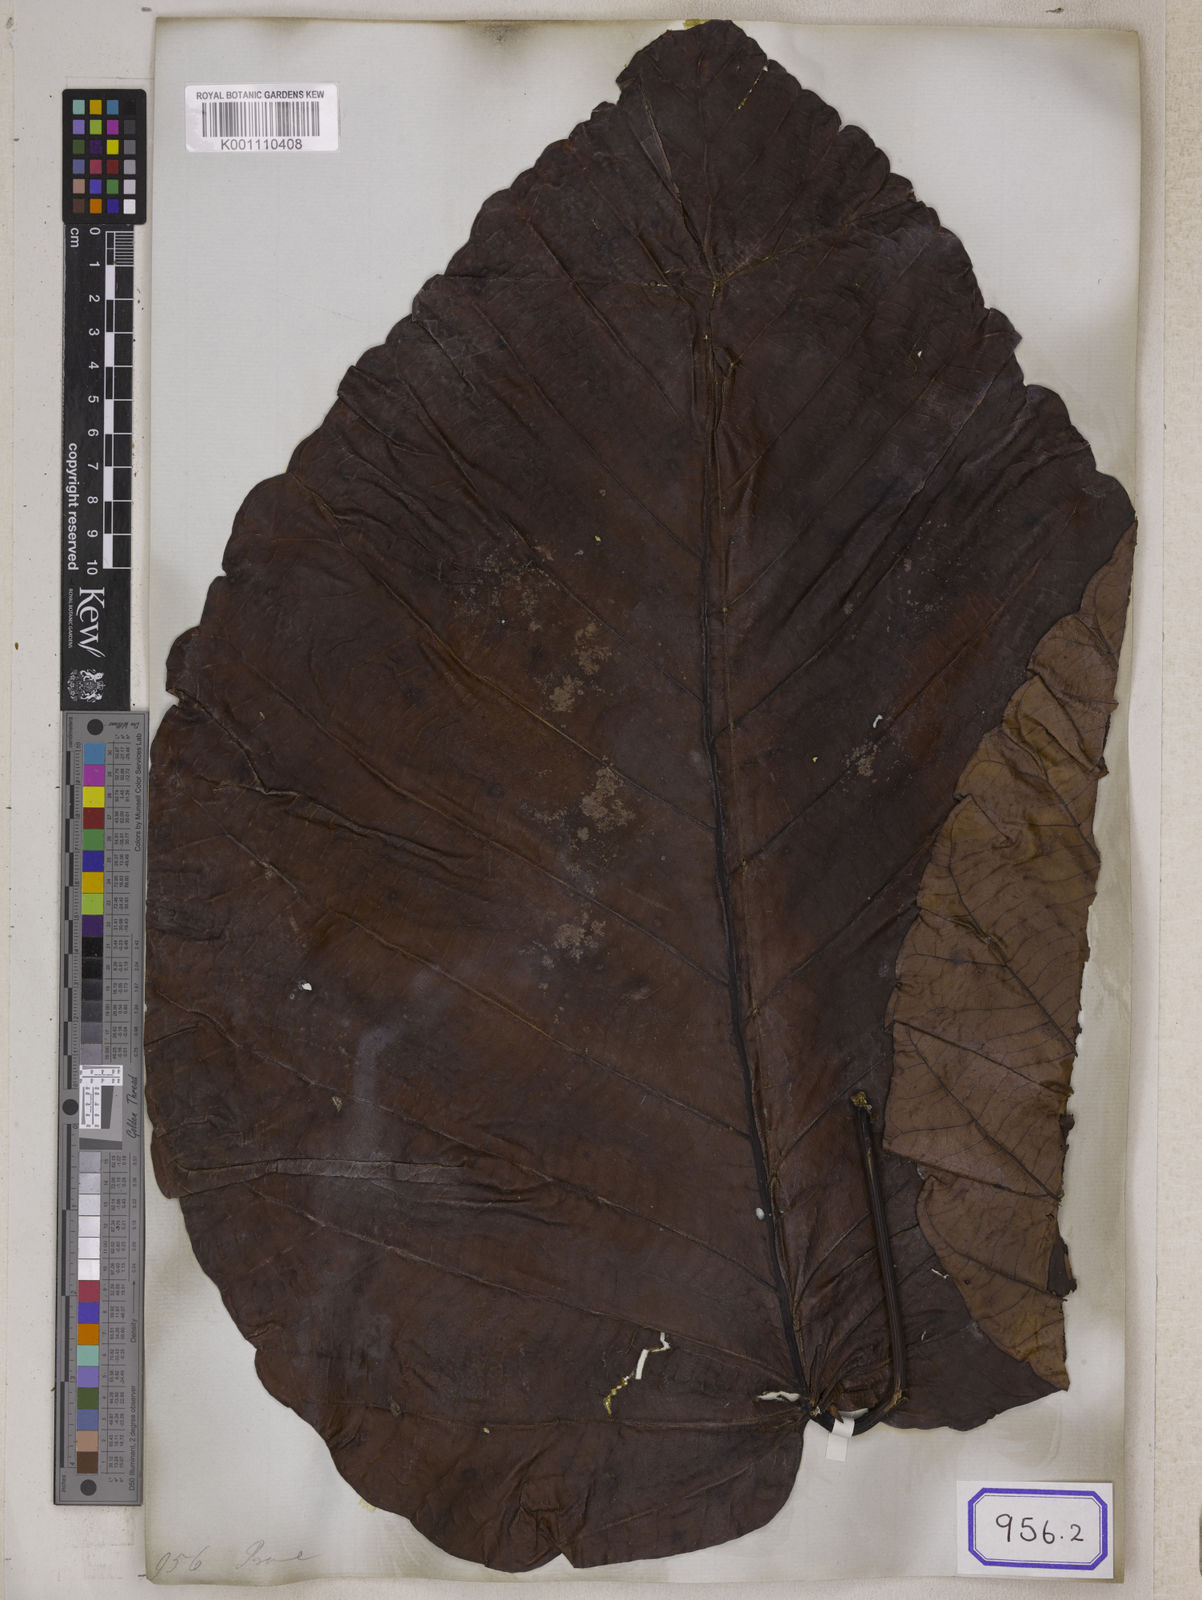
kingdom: Plantae
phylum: Tracheophyta
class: Magnoliopsida
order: Malvales
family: Dipterocarpaceae
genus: Dipterocarpus
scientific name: Dipterocarpus
